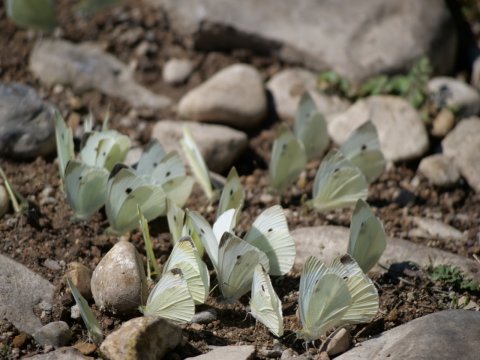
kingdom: Animalia
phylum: Arthropoda
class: Insecta
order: Lepidoptera
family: Pieridae
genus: Pieris
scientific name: Pieris rapae
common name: Cabbage White
